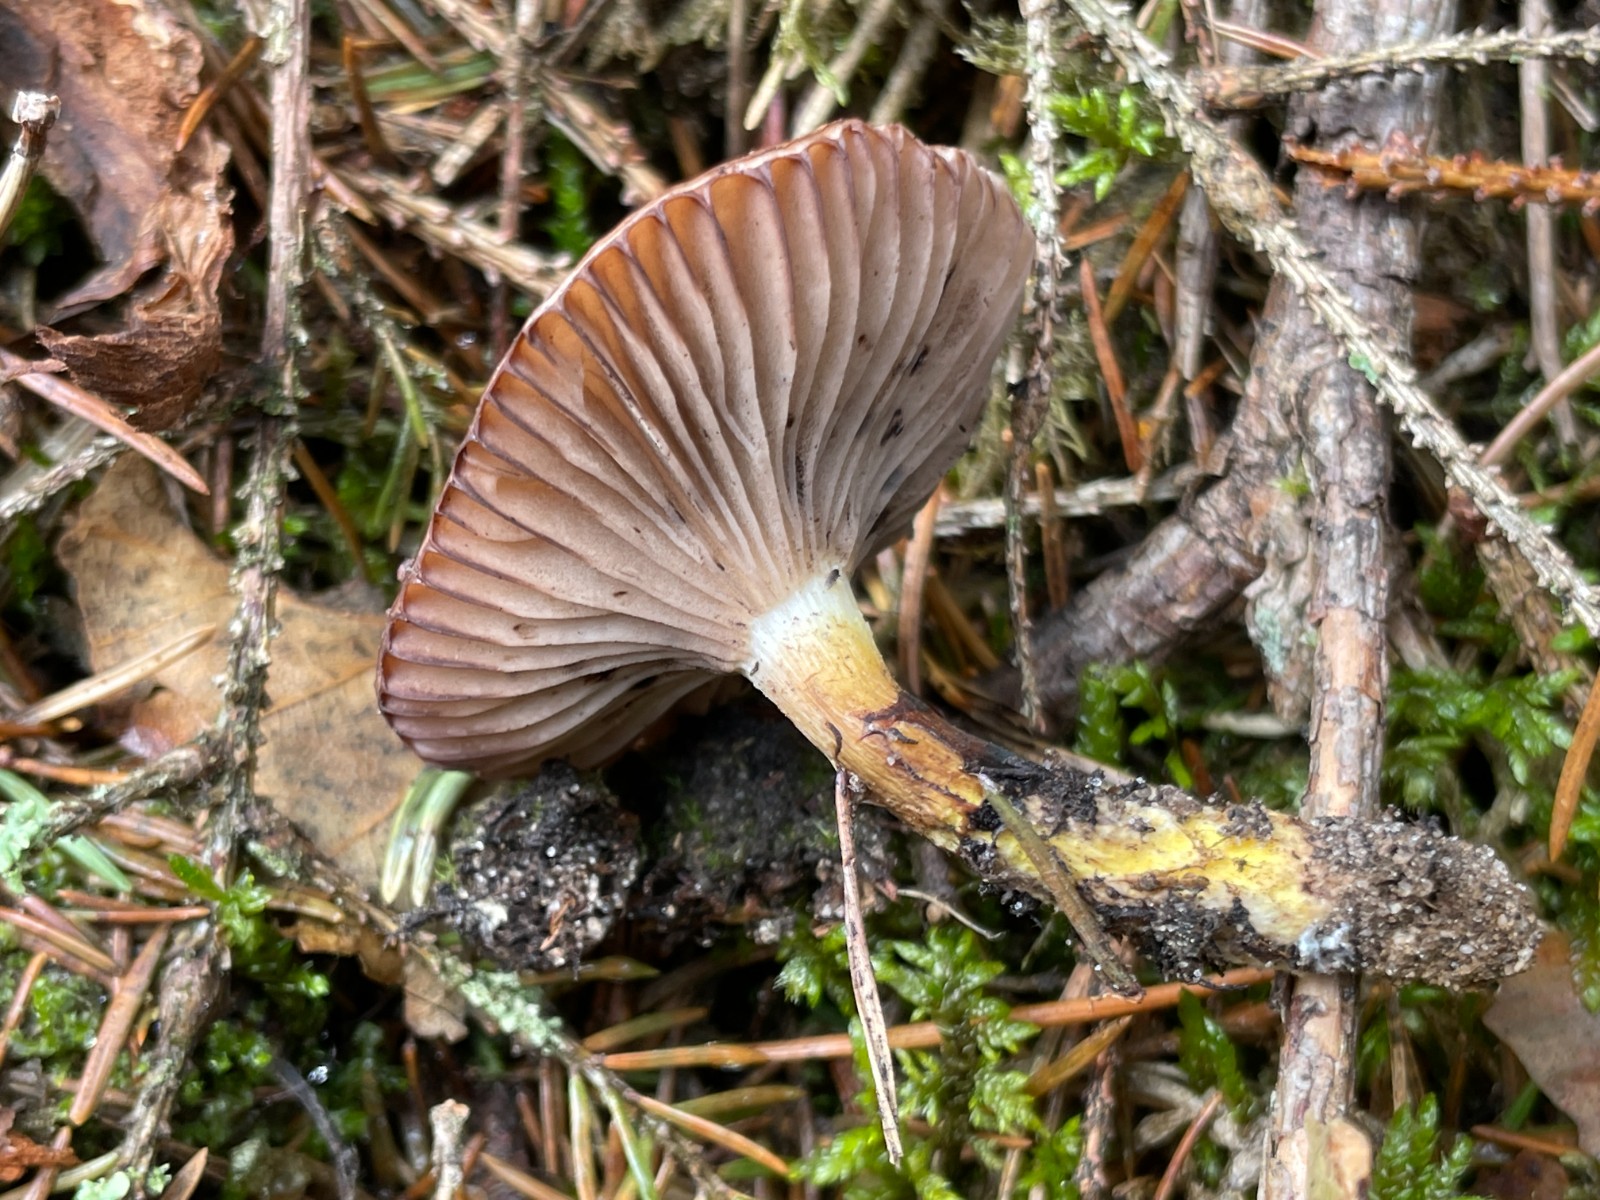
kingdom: Fungi
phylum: Basidiomycota
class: Agaricomycetes
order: Boletales
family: Gomphidiaceae
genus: Gomphidius
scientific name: Gomphidius
